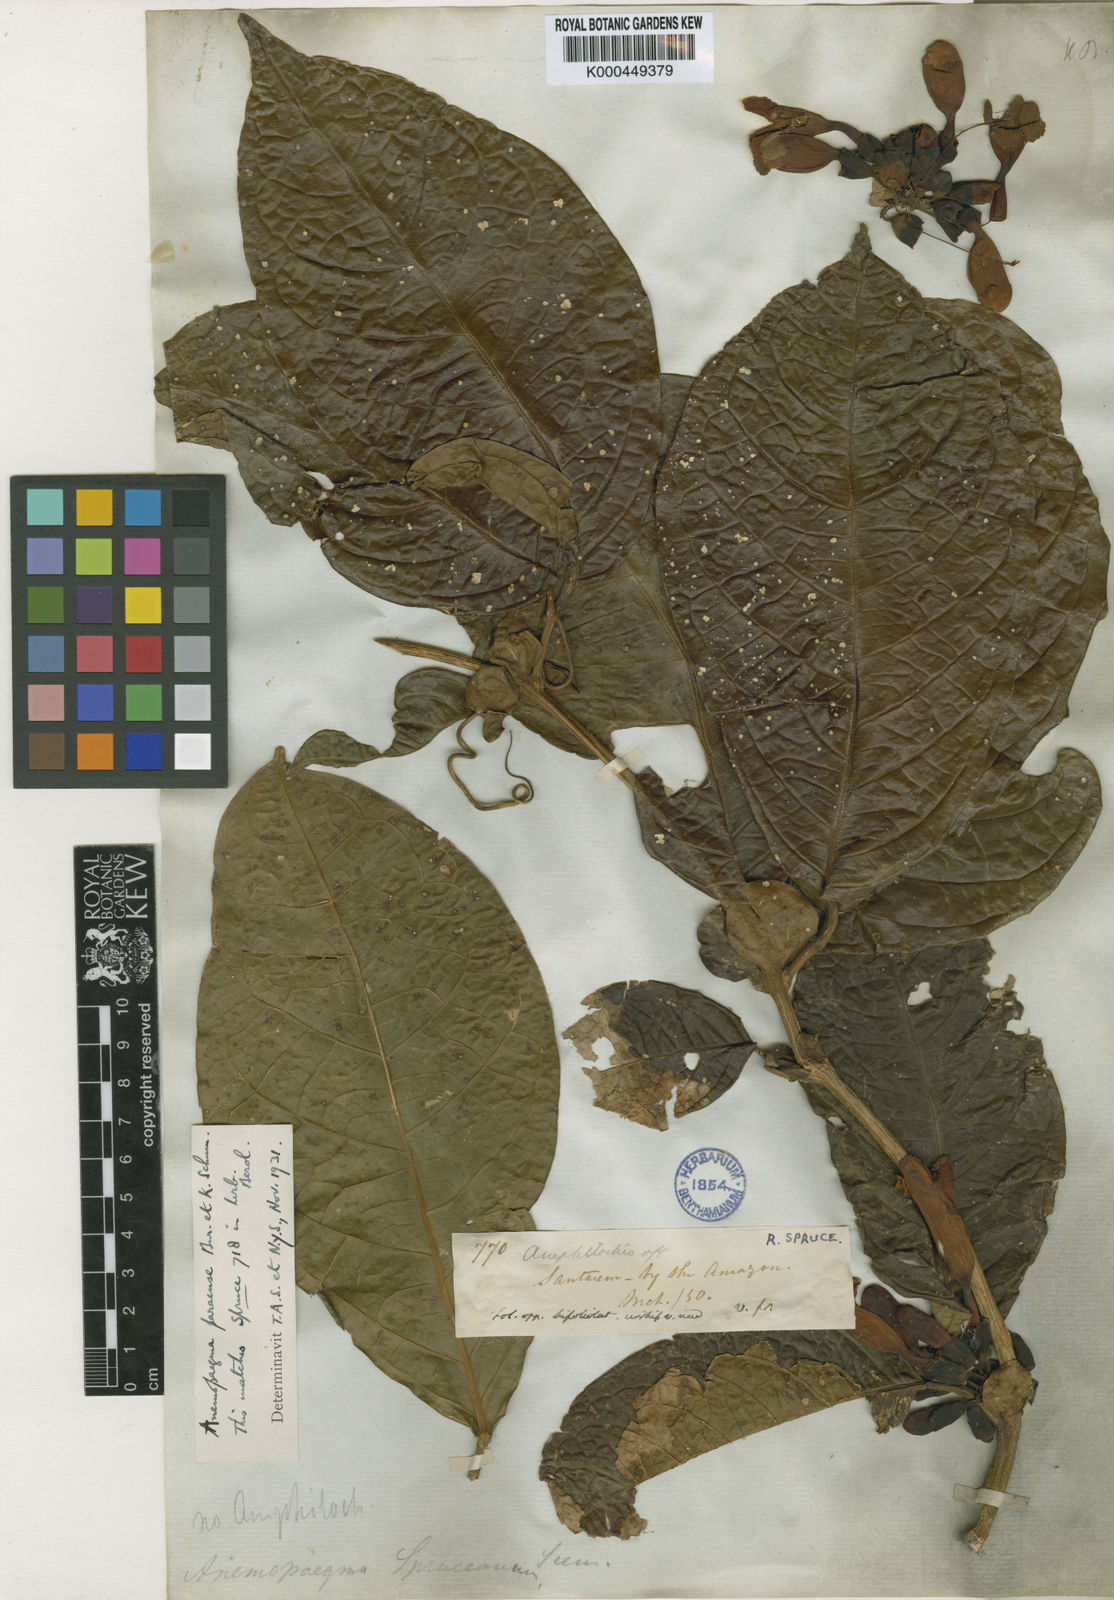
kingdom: Plantae
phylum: Tracheophyta
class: Magnoliopsida
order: Lamiales
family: Bignoniaceae
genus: Anemopaegma
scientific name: Anemopaegma chrysoleucum
